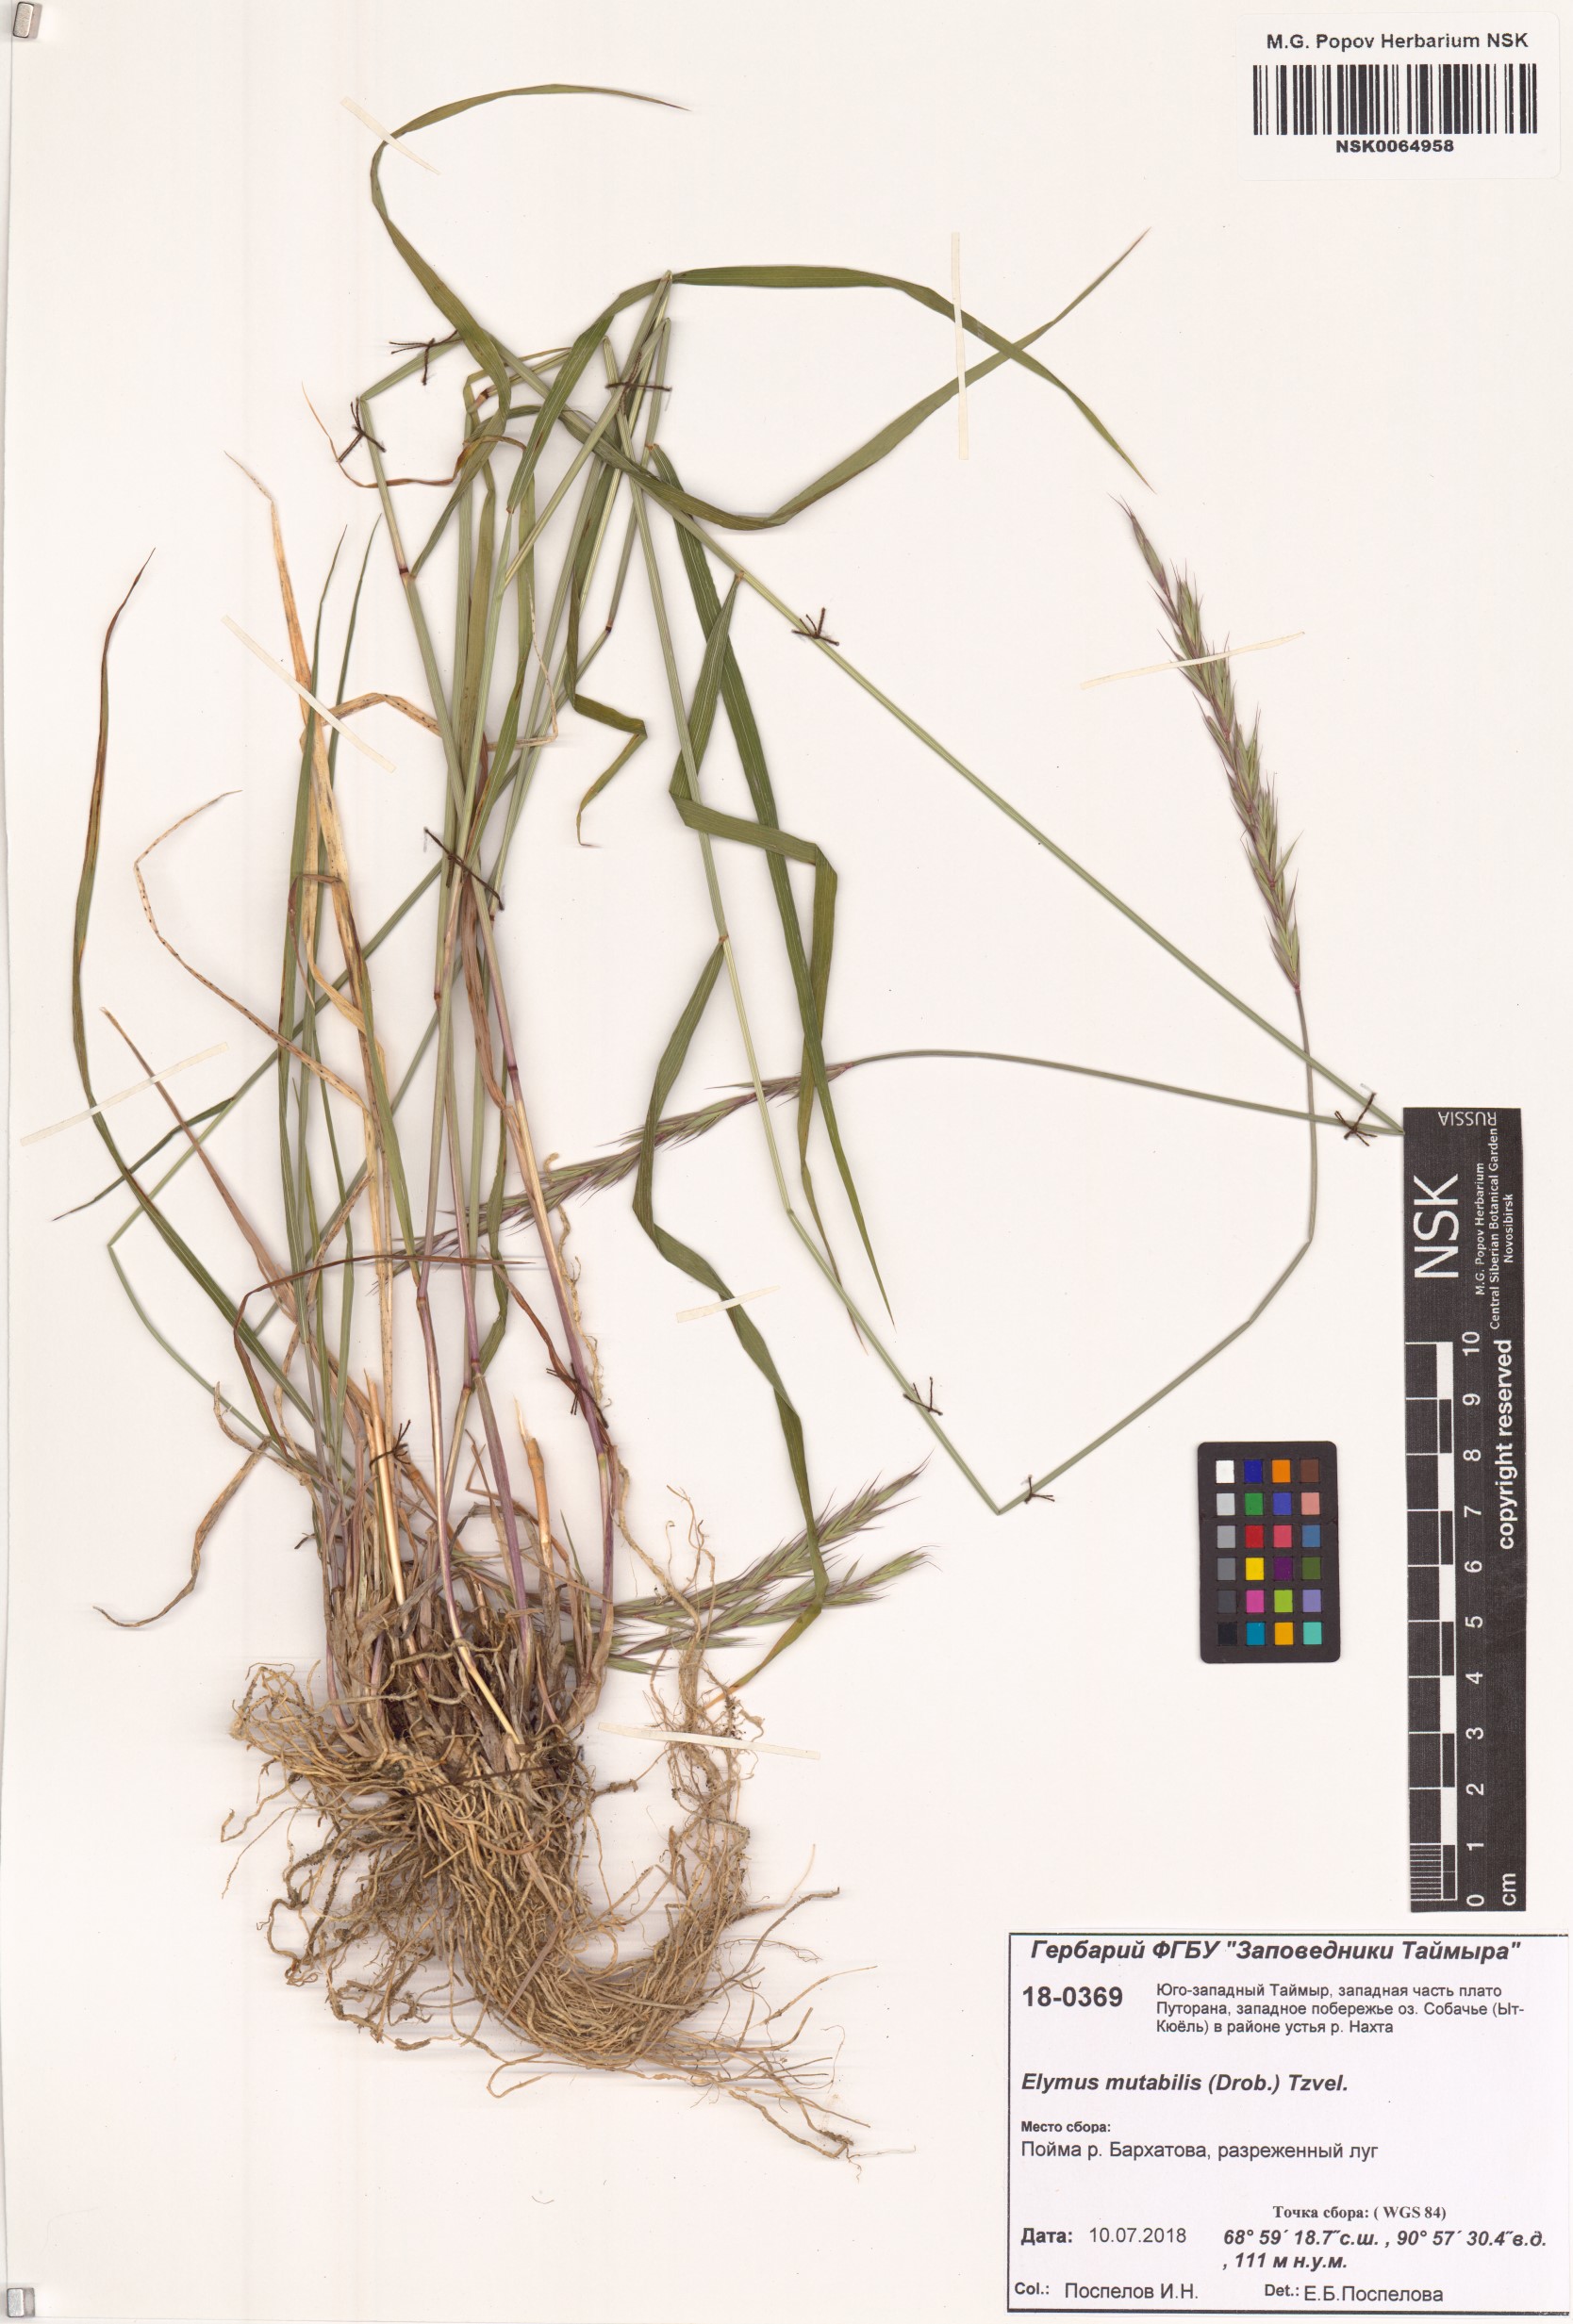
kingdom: Plantae
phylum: Tracheophyta
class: Liliopsida
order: Poales
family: Poaceae
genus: Elymus
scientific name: Elymus mutabilis
